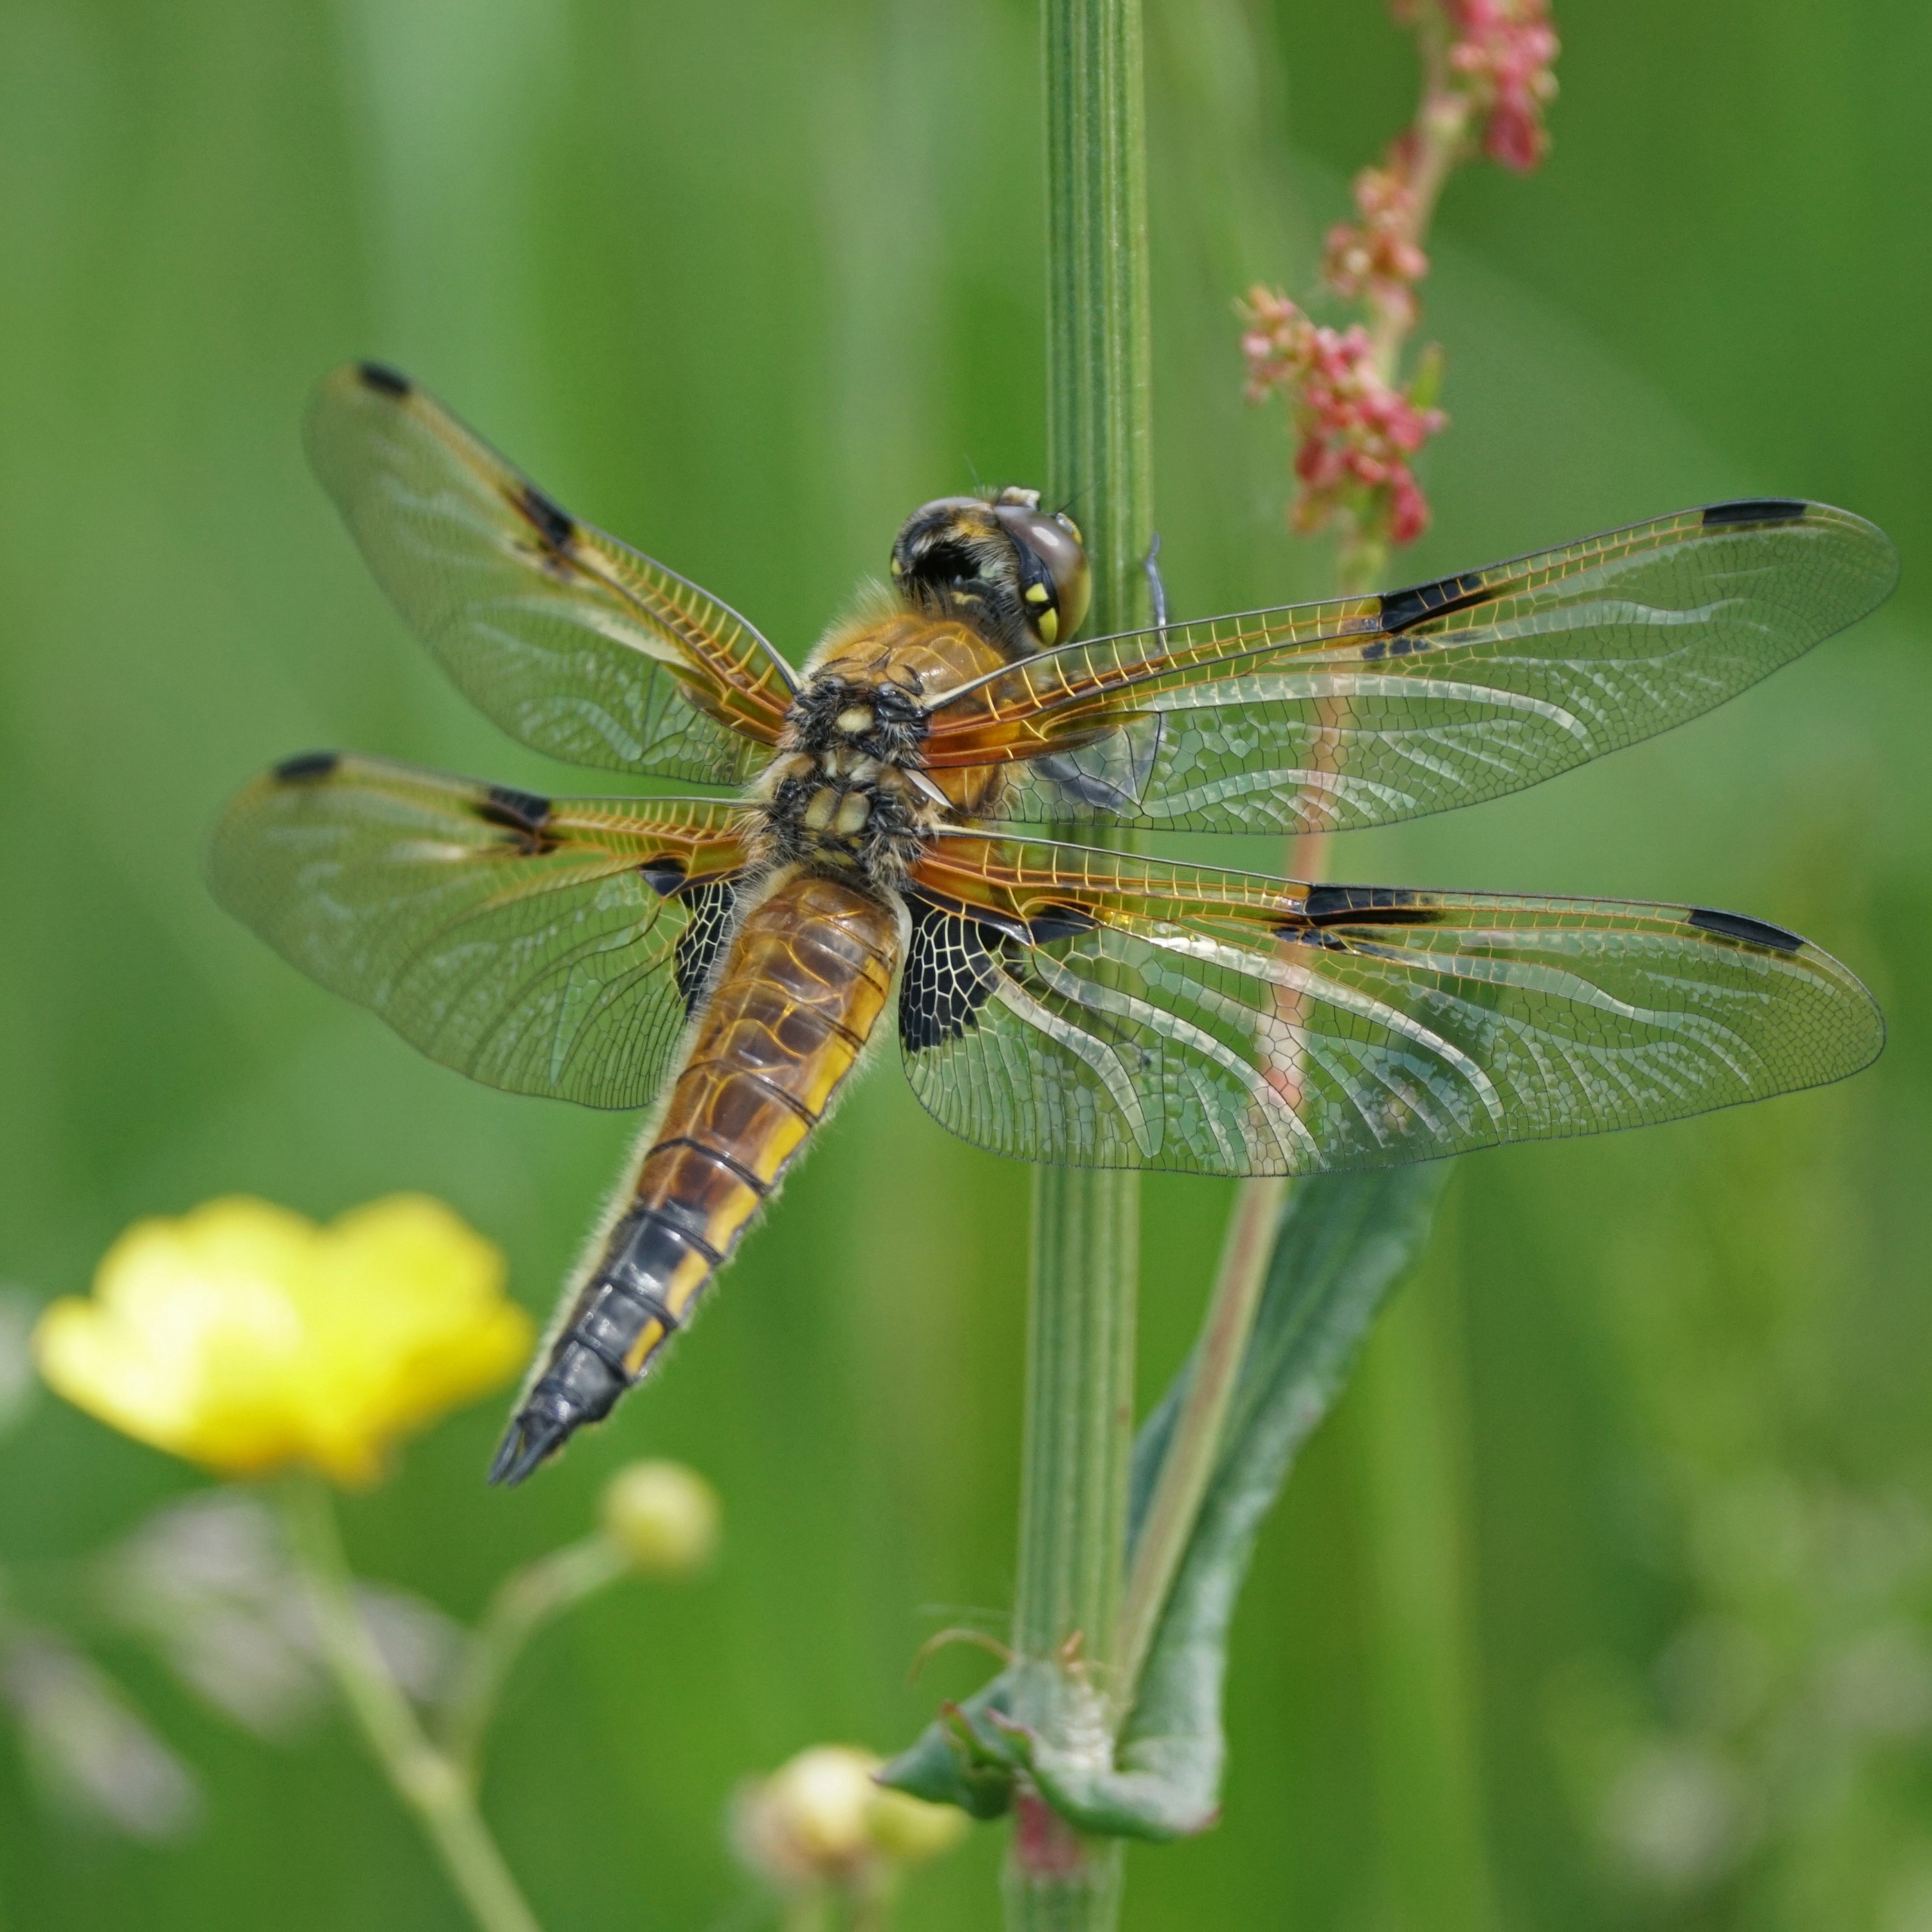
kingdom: Animalia
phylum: Arthropoda
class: Insecta
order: Odonata
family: Libellulidae
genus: Libellula
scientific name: Libellula quadrimaculata
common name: Fireplettet libel
